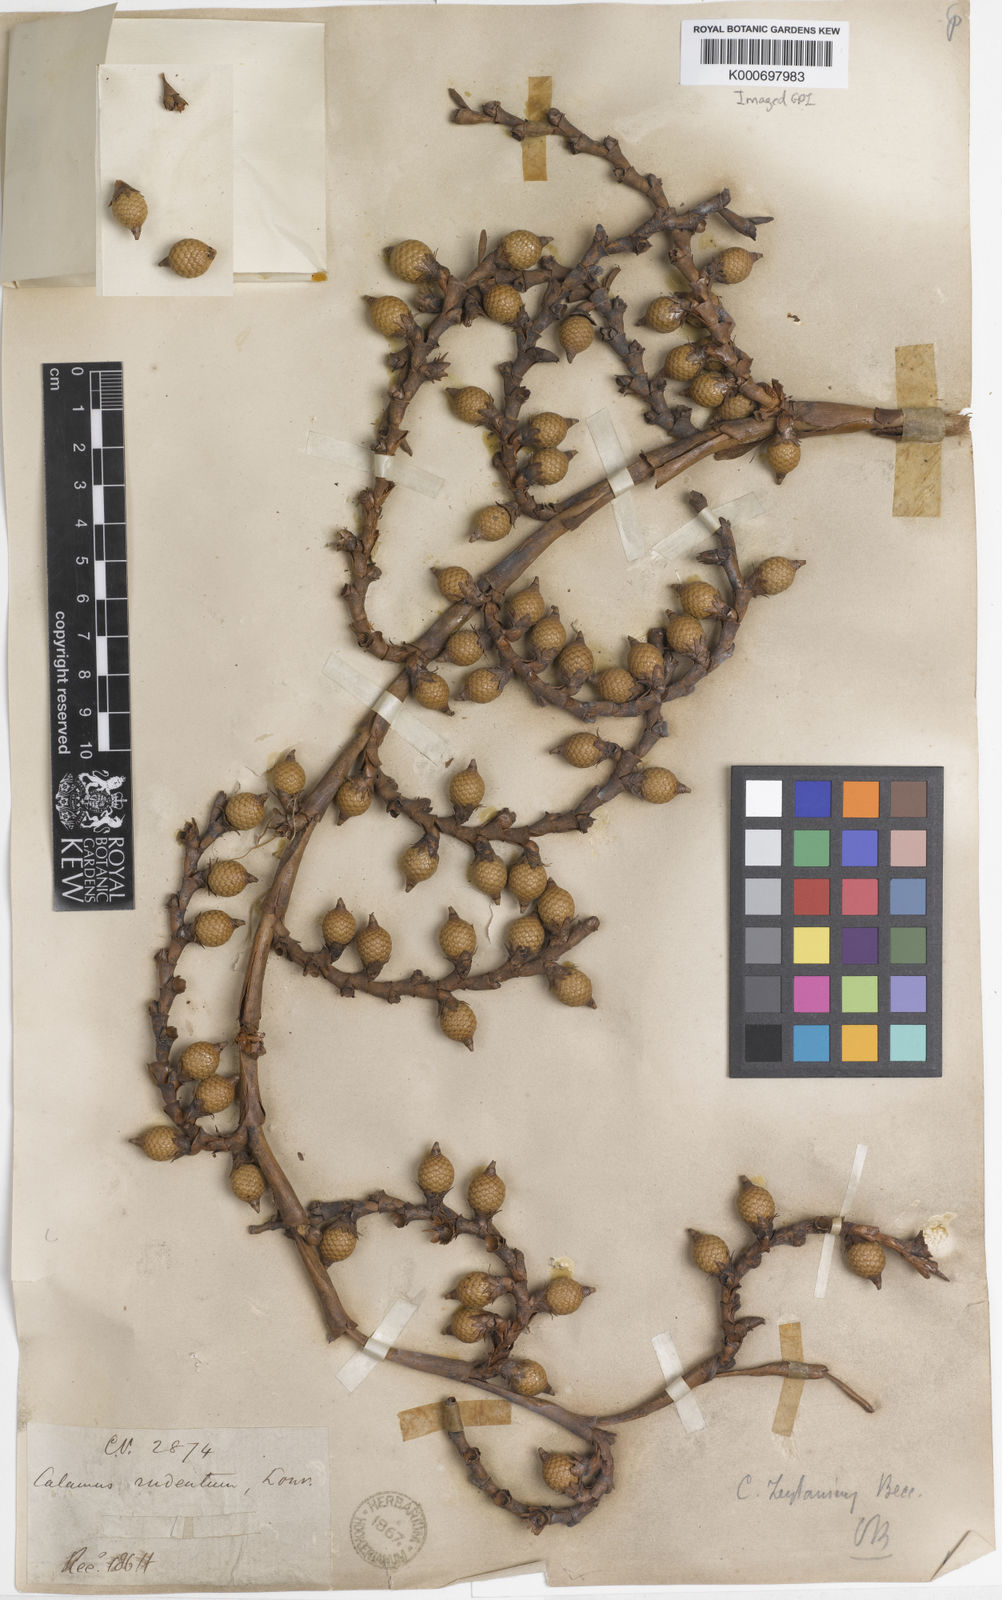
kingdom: Plantae
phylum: Tracheophyta
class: Liliopsida
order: Arecales
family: Arecaceae
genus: Calamus
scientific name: Calamus zeylanicus
